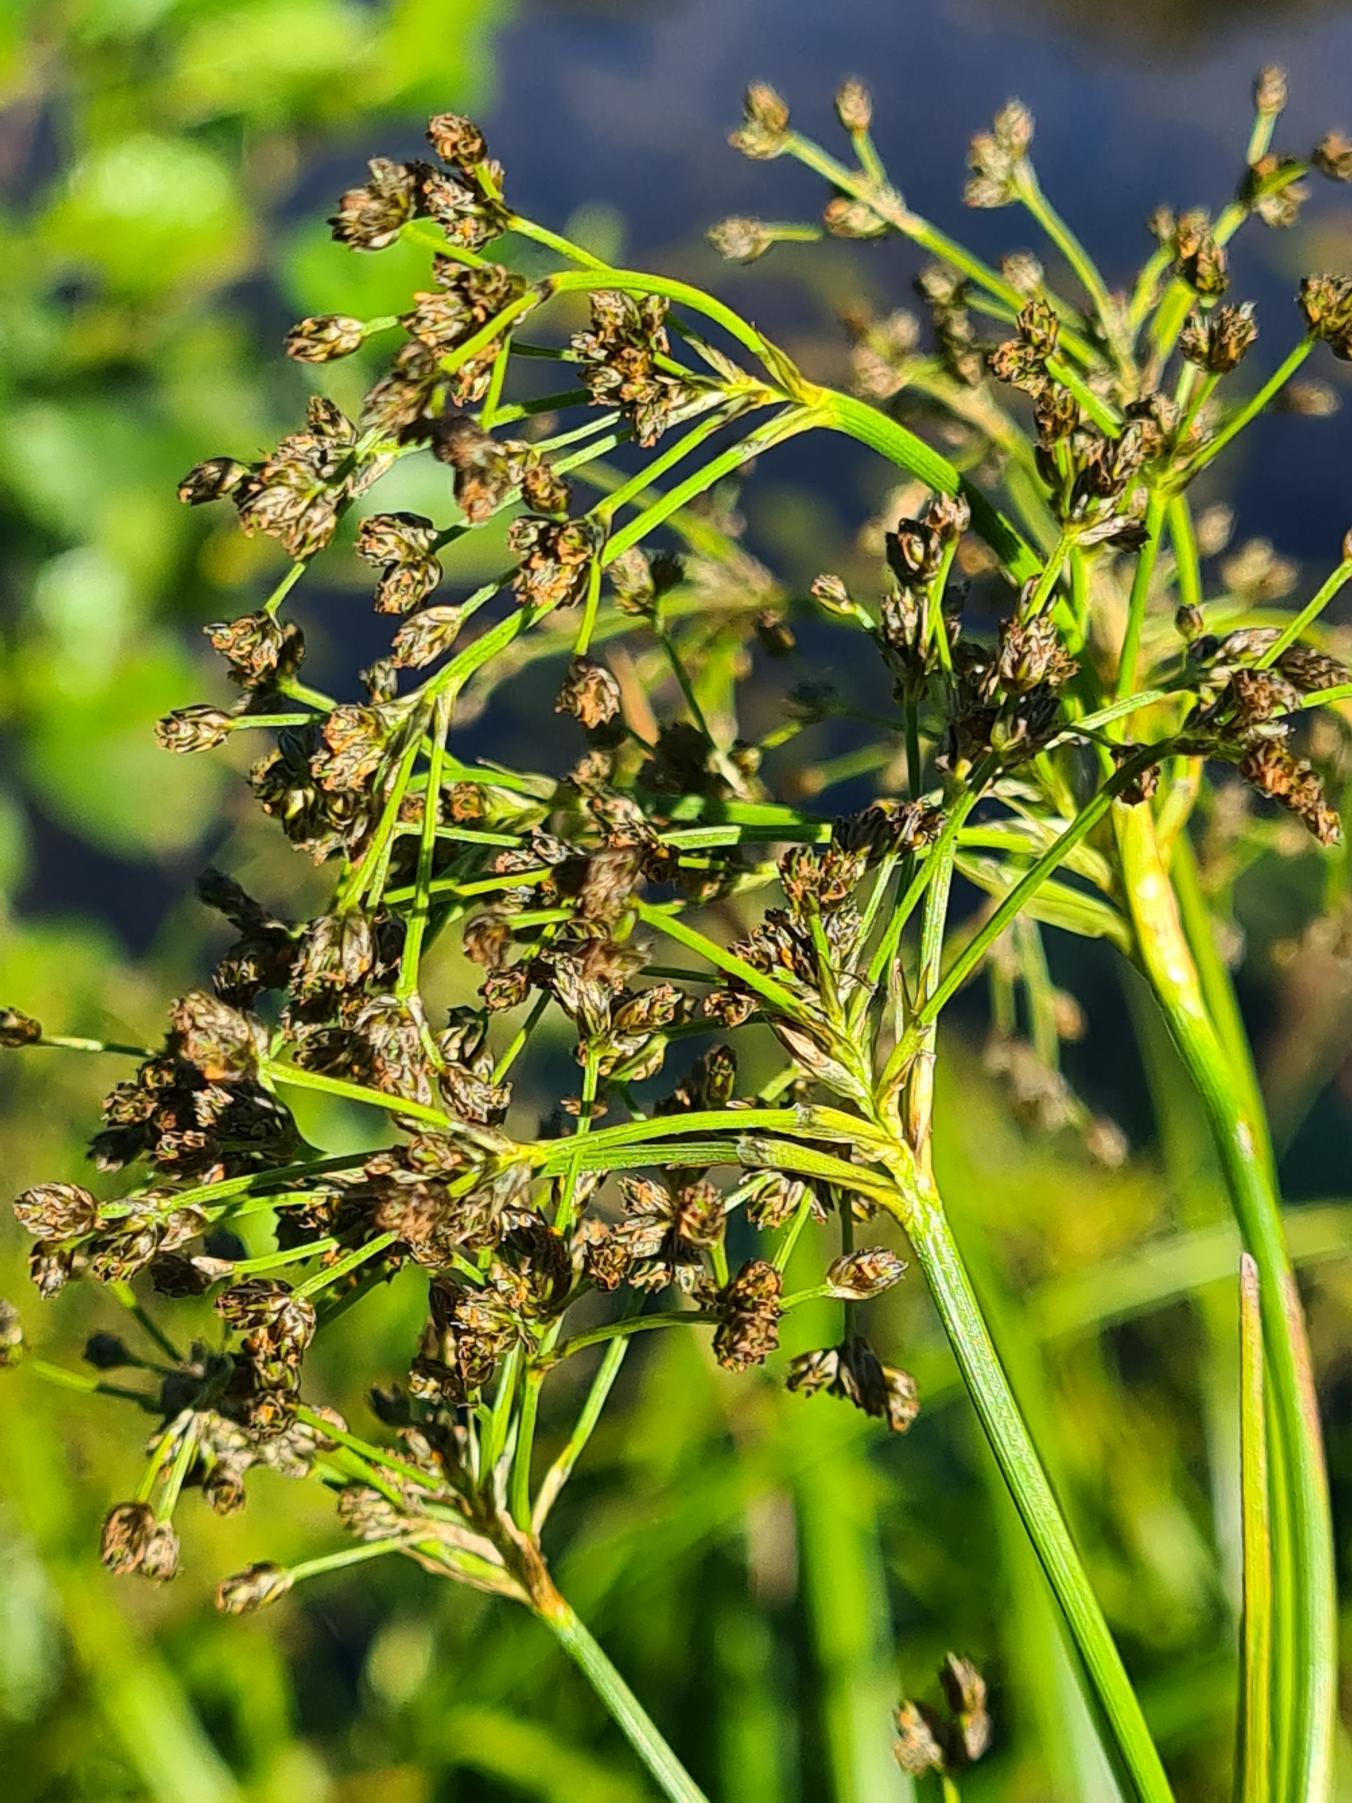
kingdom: Plantae
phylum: Tracheophyta
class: Liliopsida
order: Poales
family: Cyperaceae
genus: Scirpus
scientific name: Scirpus sylvaticus
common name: Skov-kogleaks
